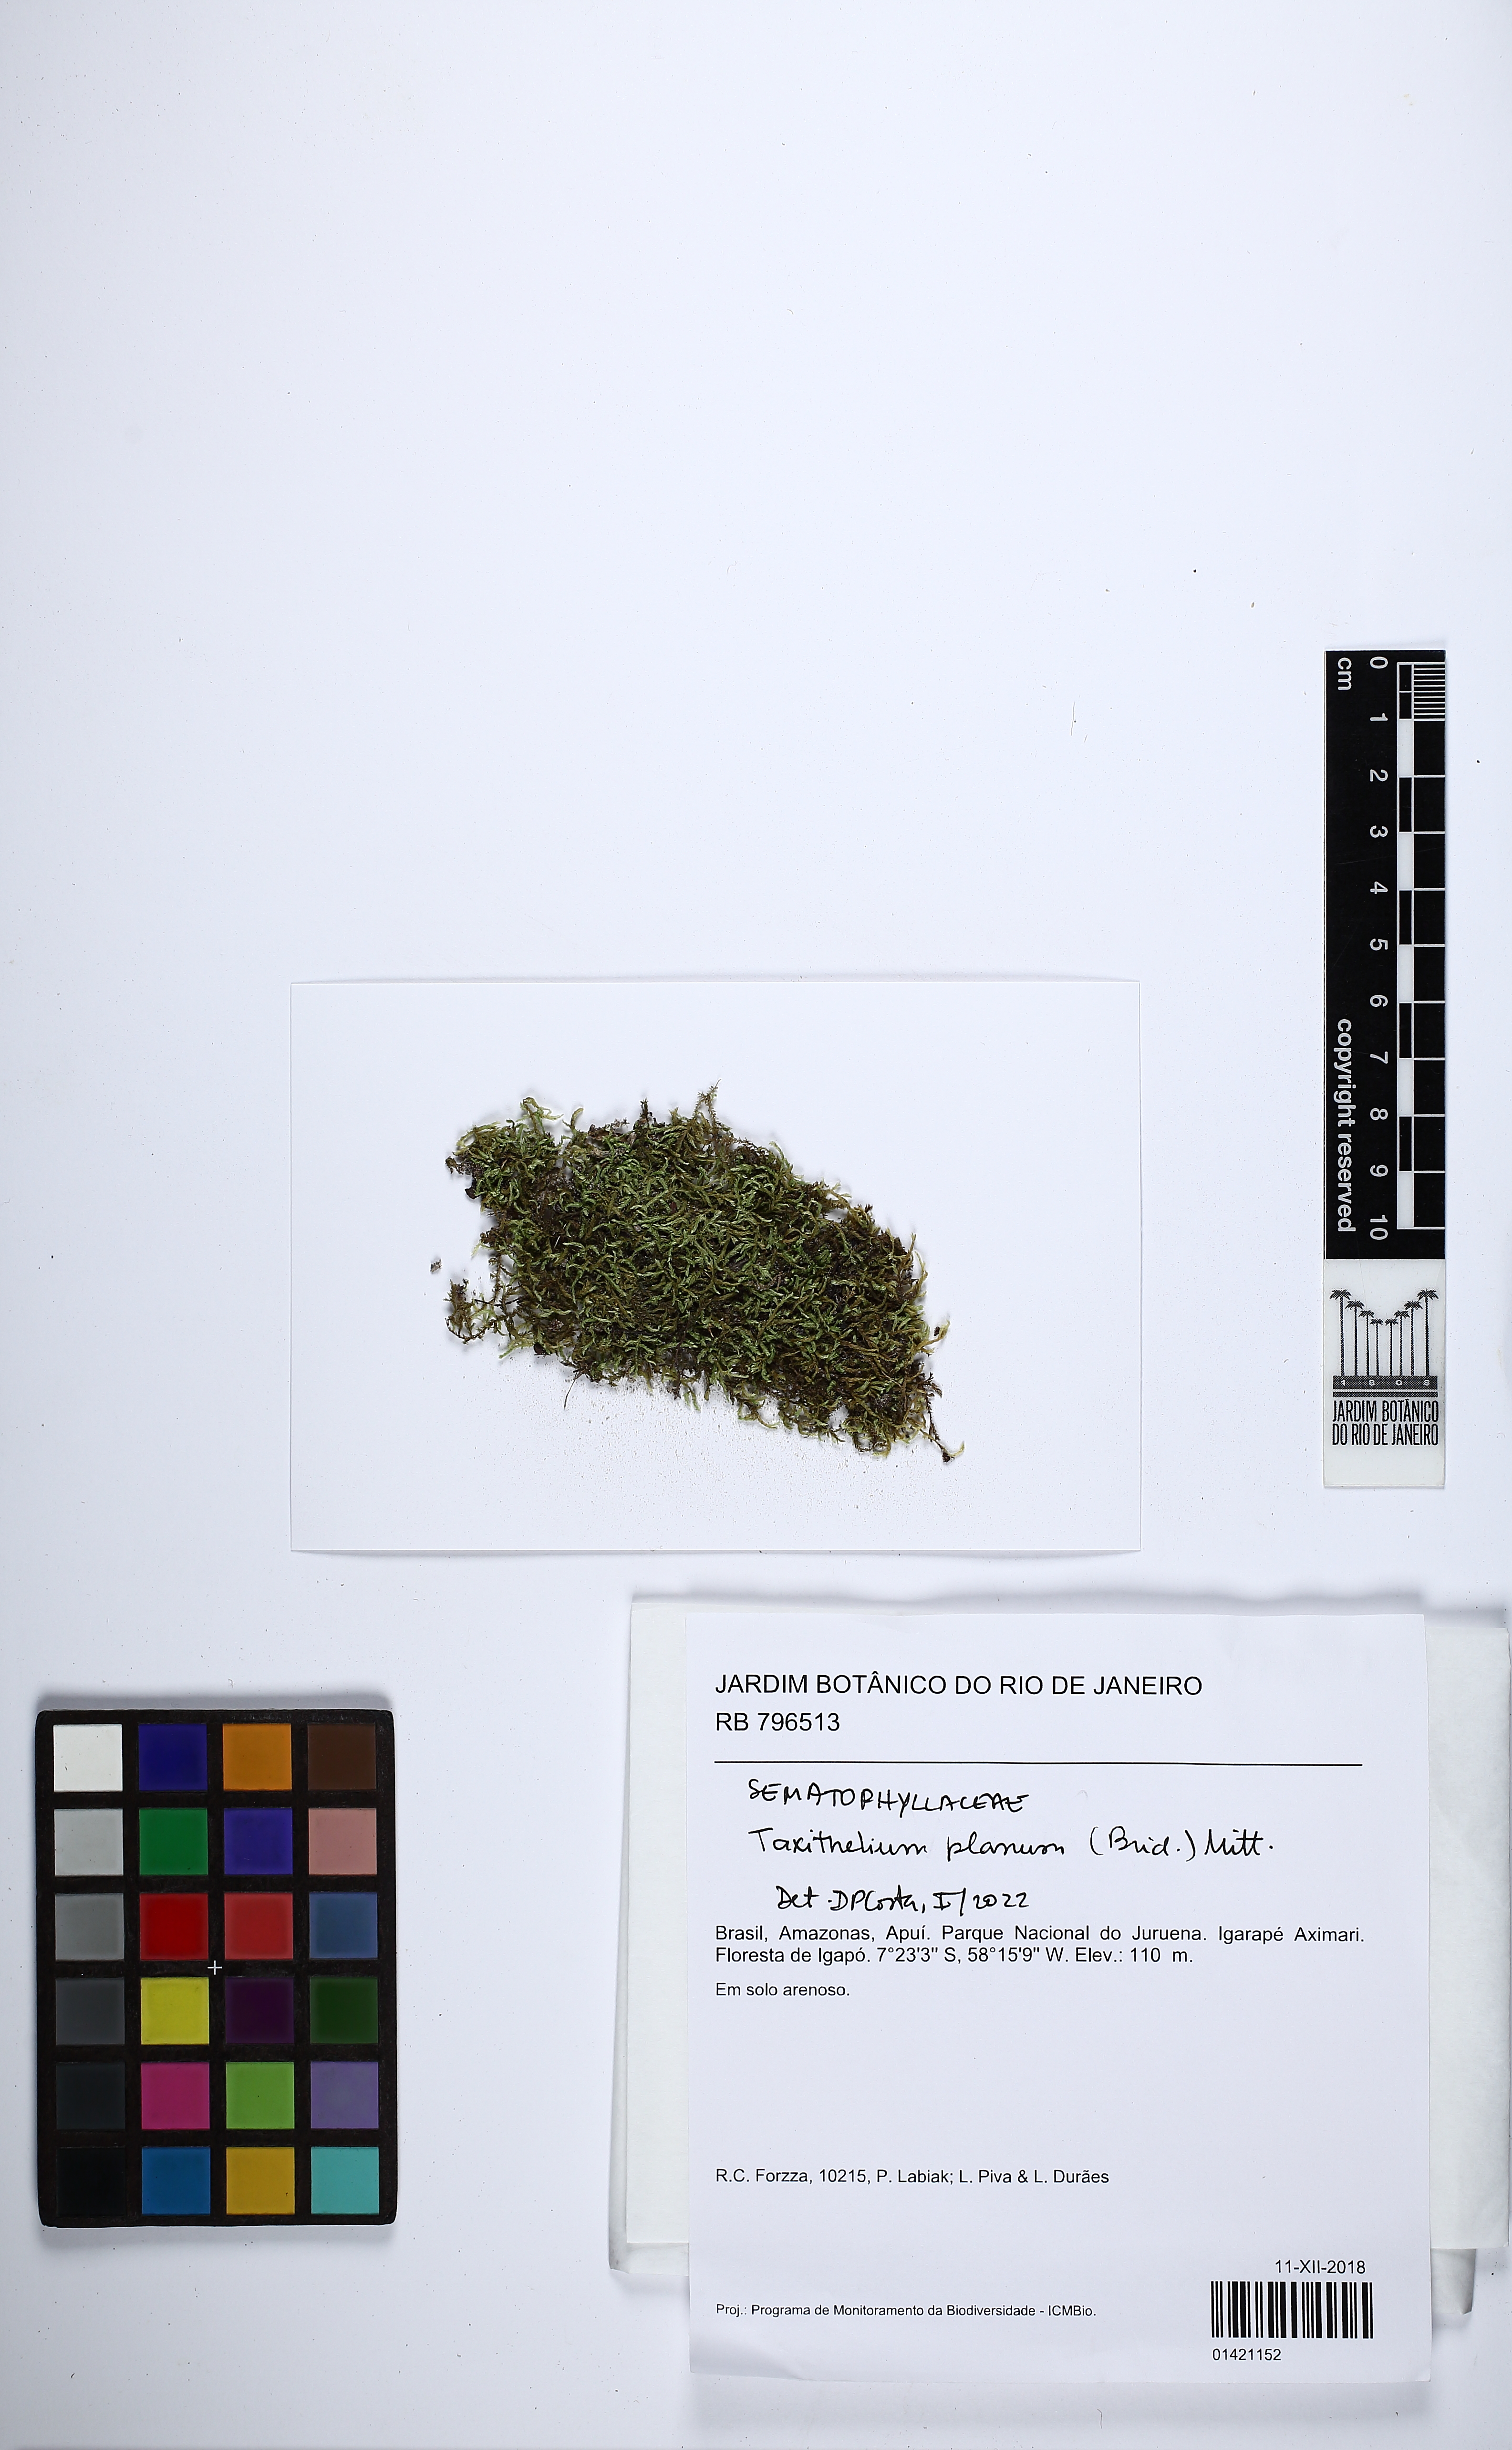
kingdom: Plantae
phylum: Bryophyta
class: Bryopsida
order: Hypnales
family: Pylaisiadelphaceae
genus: Taxithelium
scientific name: Taxithelium planum
